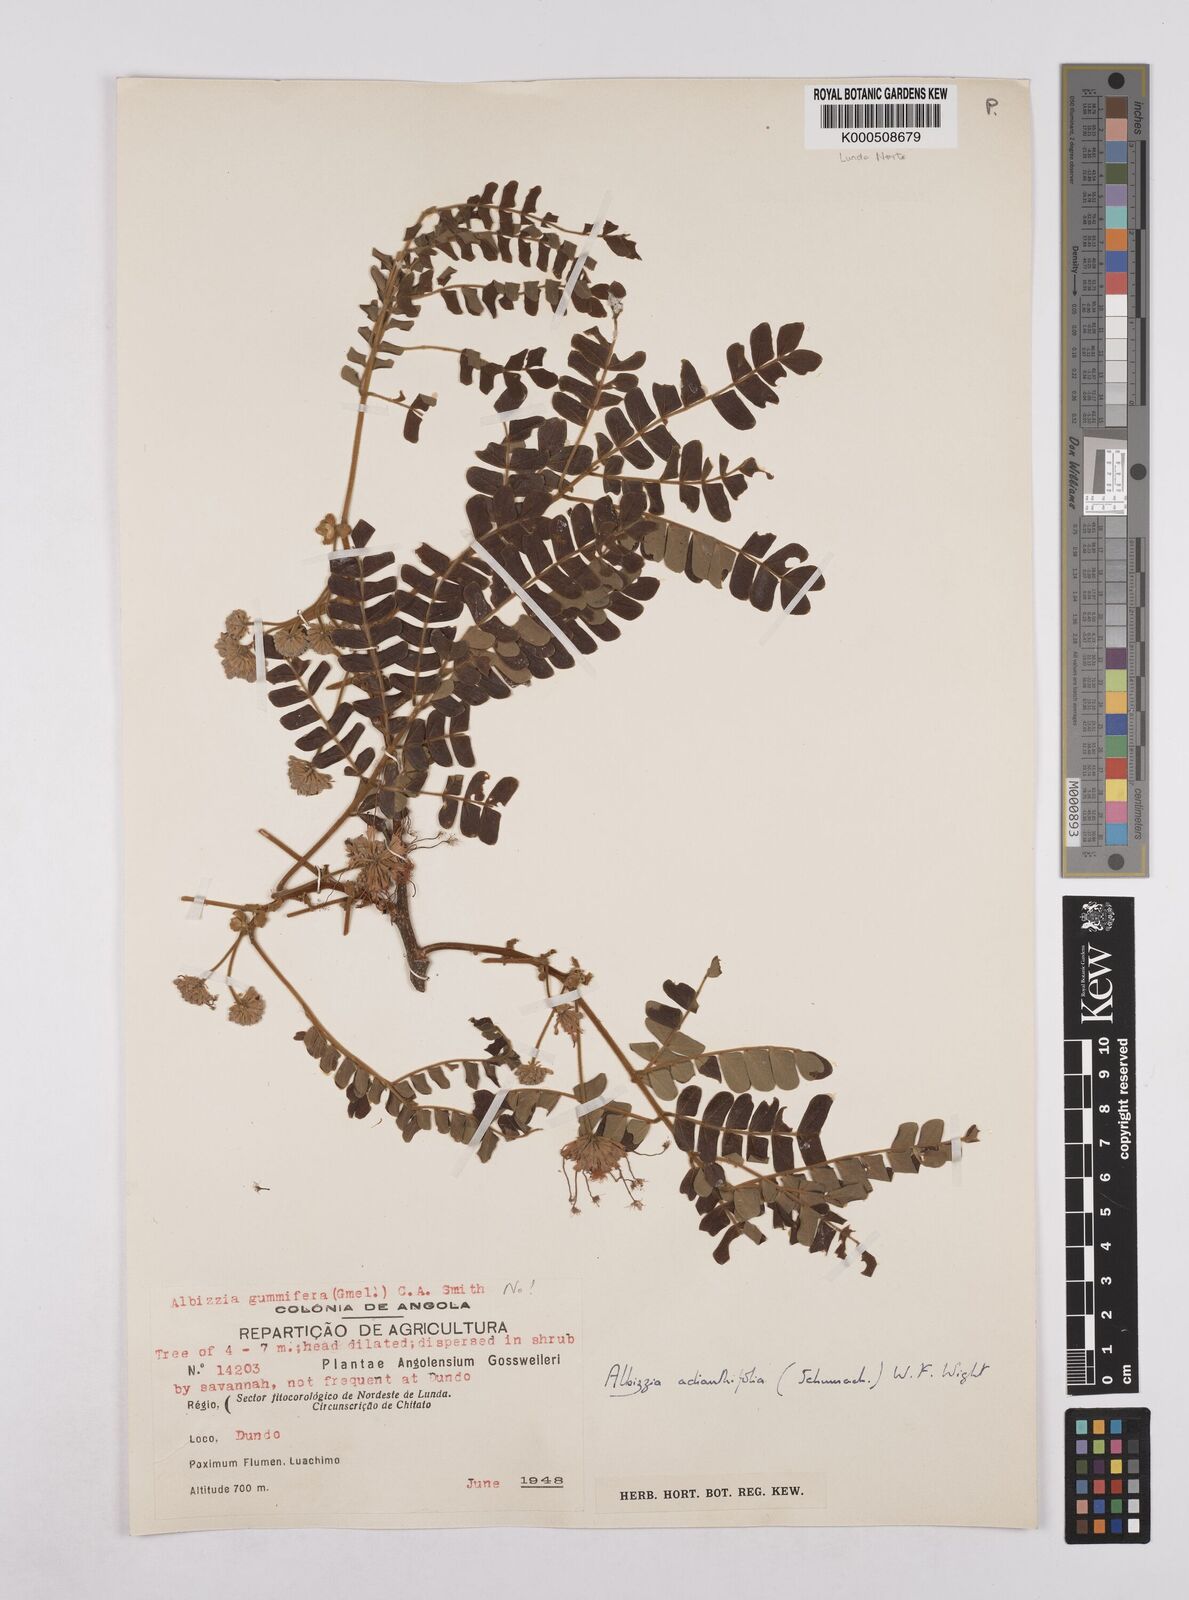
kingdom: Plantae
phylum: Tracheophyta
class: Magnoliopsida
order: Fabales
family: Fabaceae
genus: Albizia
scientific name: Albizia adianthifolia
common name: West african albizia
